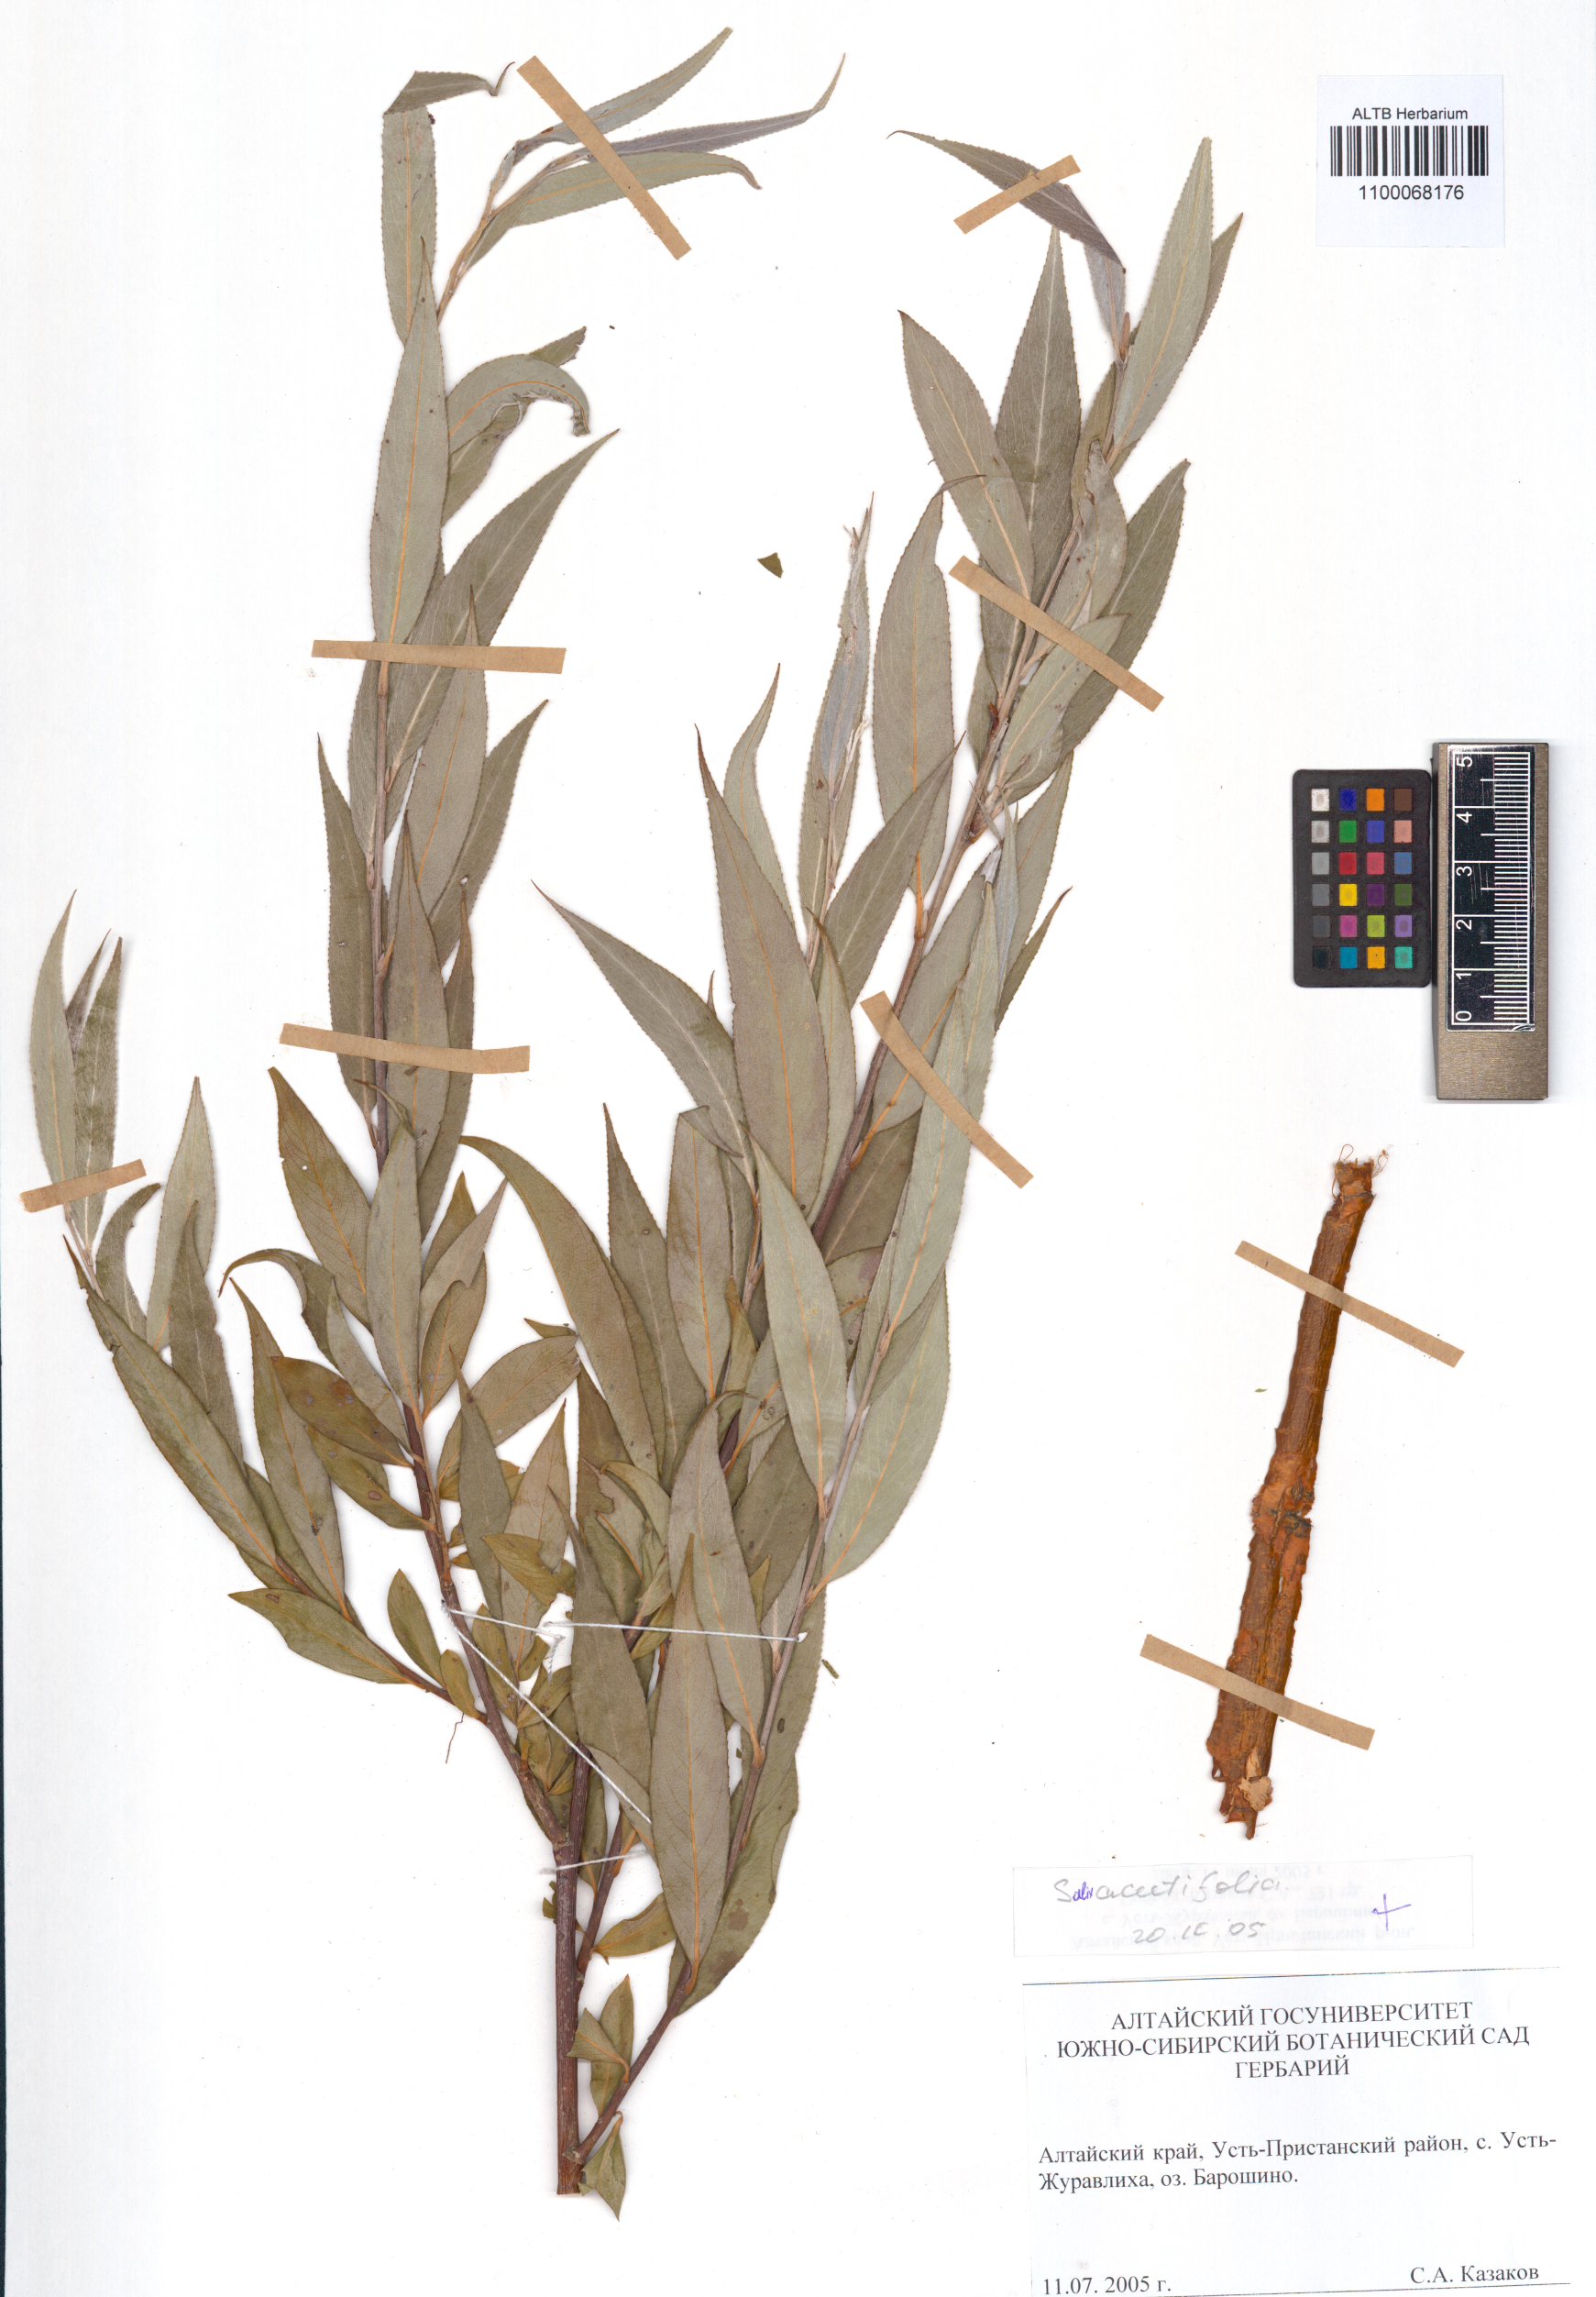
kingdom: Plantae
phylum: Tracheophyta
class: Magnoliopsida
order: Malpighiales
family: Salicaceae
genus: Salix
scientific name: Salix acutifolia
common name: Siberian violet-willow
